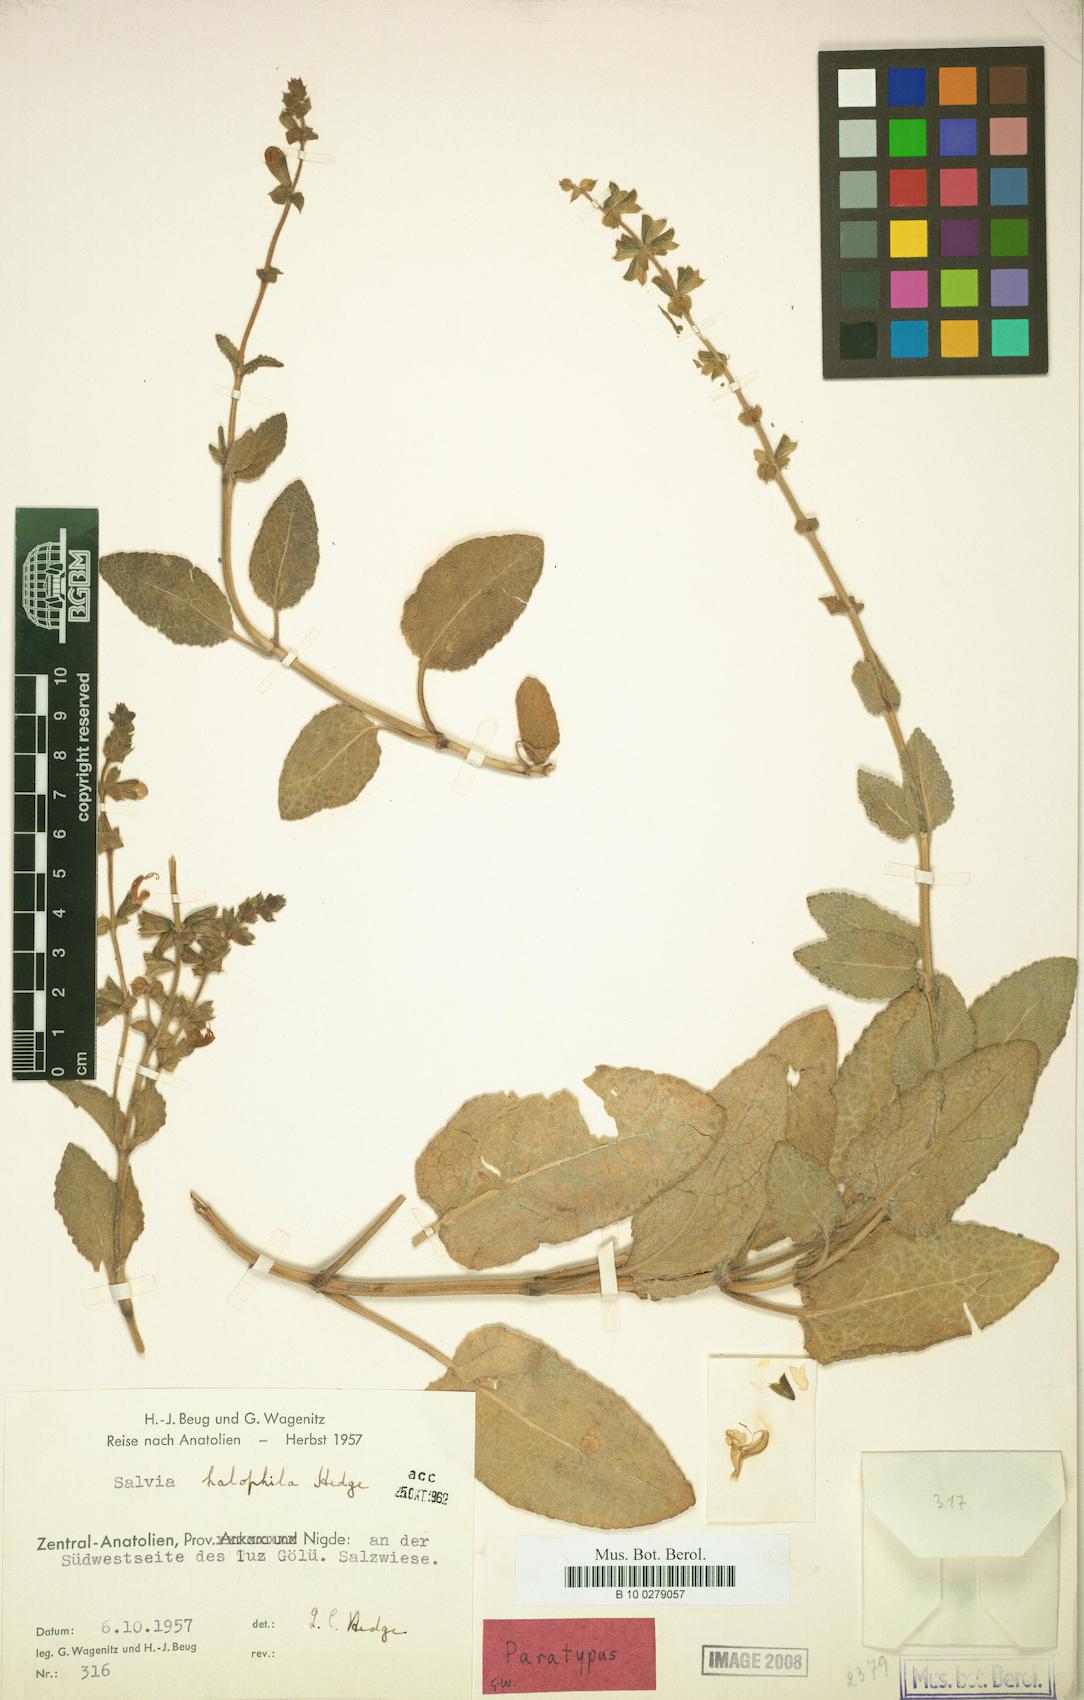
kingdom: Plantae
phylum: Tracheophyta
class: Magnoliopsida
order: Lamiales
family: Lamiaceae
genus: Salvia
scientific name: Salvia halophila
